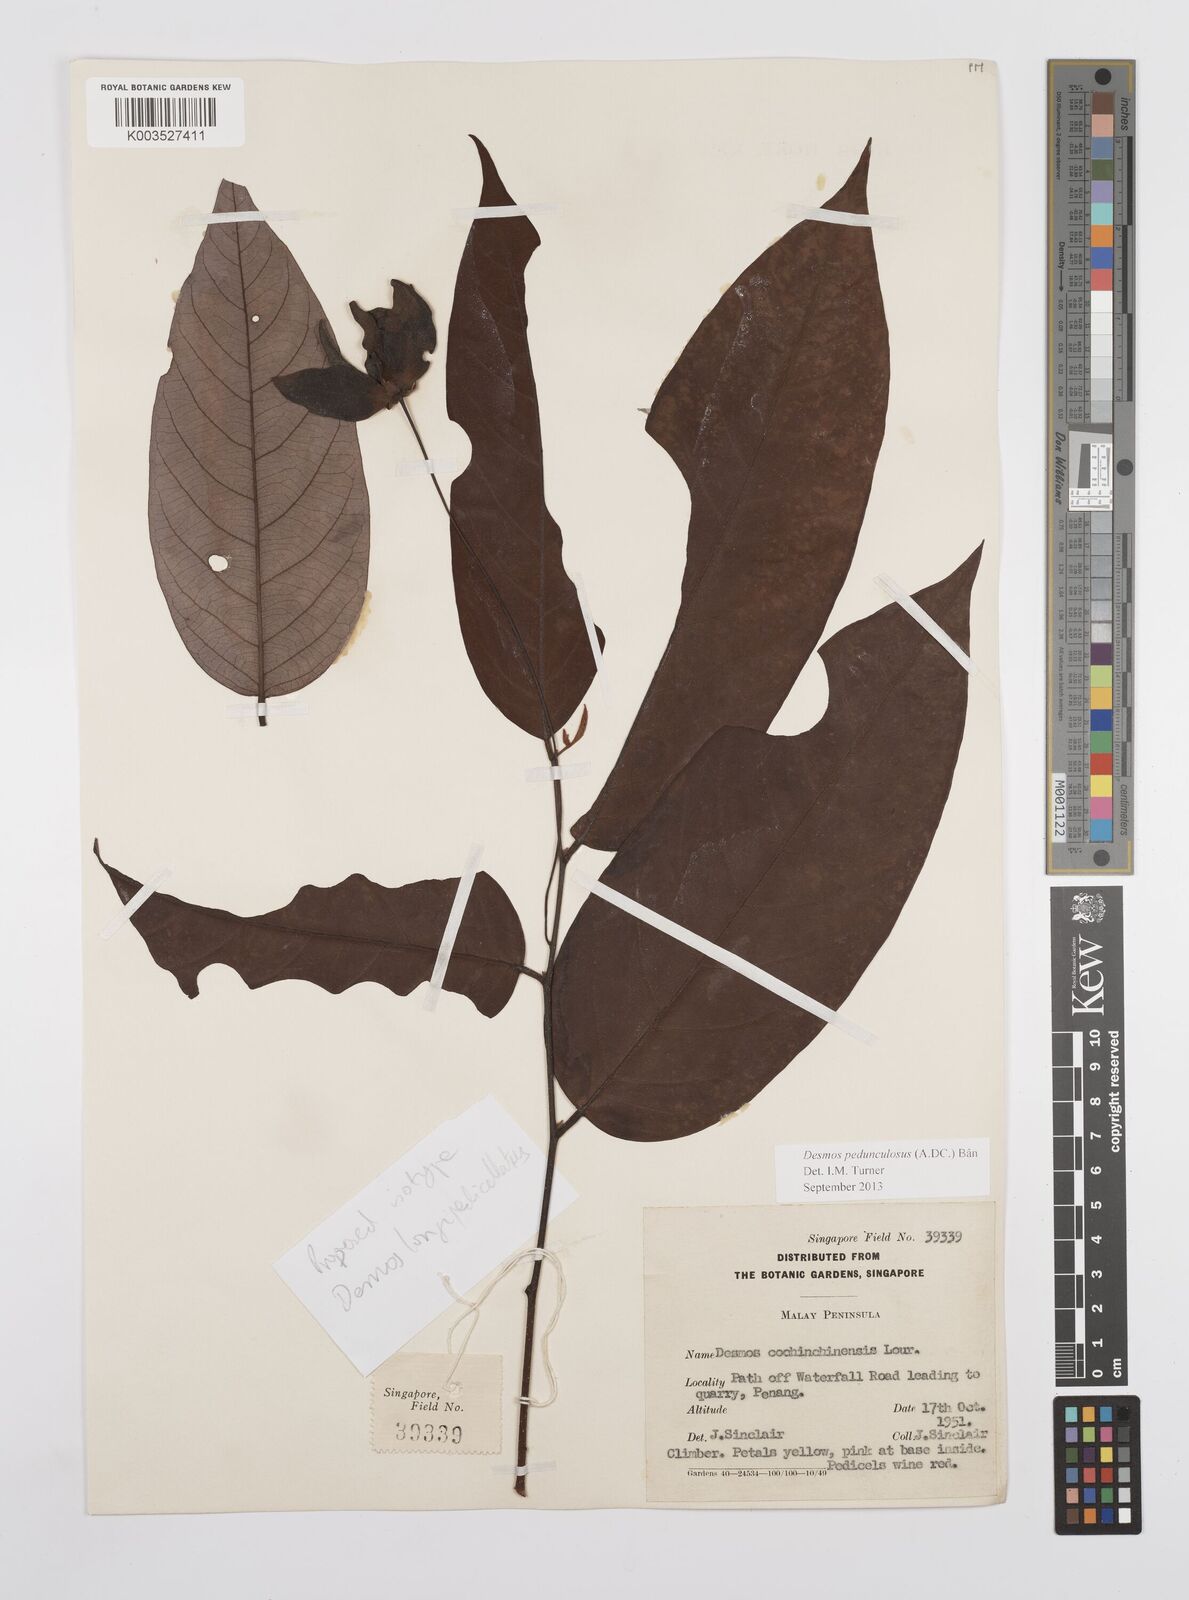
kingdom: Plantae
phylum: Tracheophyta
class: Magnoliopsida
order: Magnoliales
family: Annonaceae
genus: Desmos
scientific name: Desmos cochinchinensis
